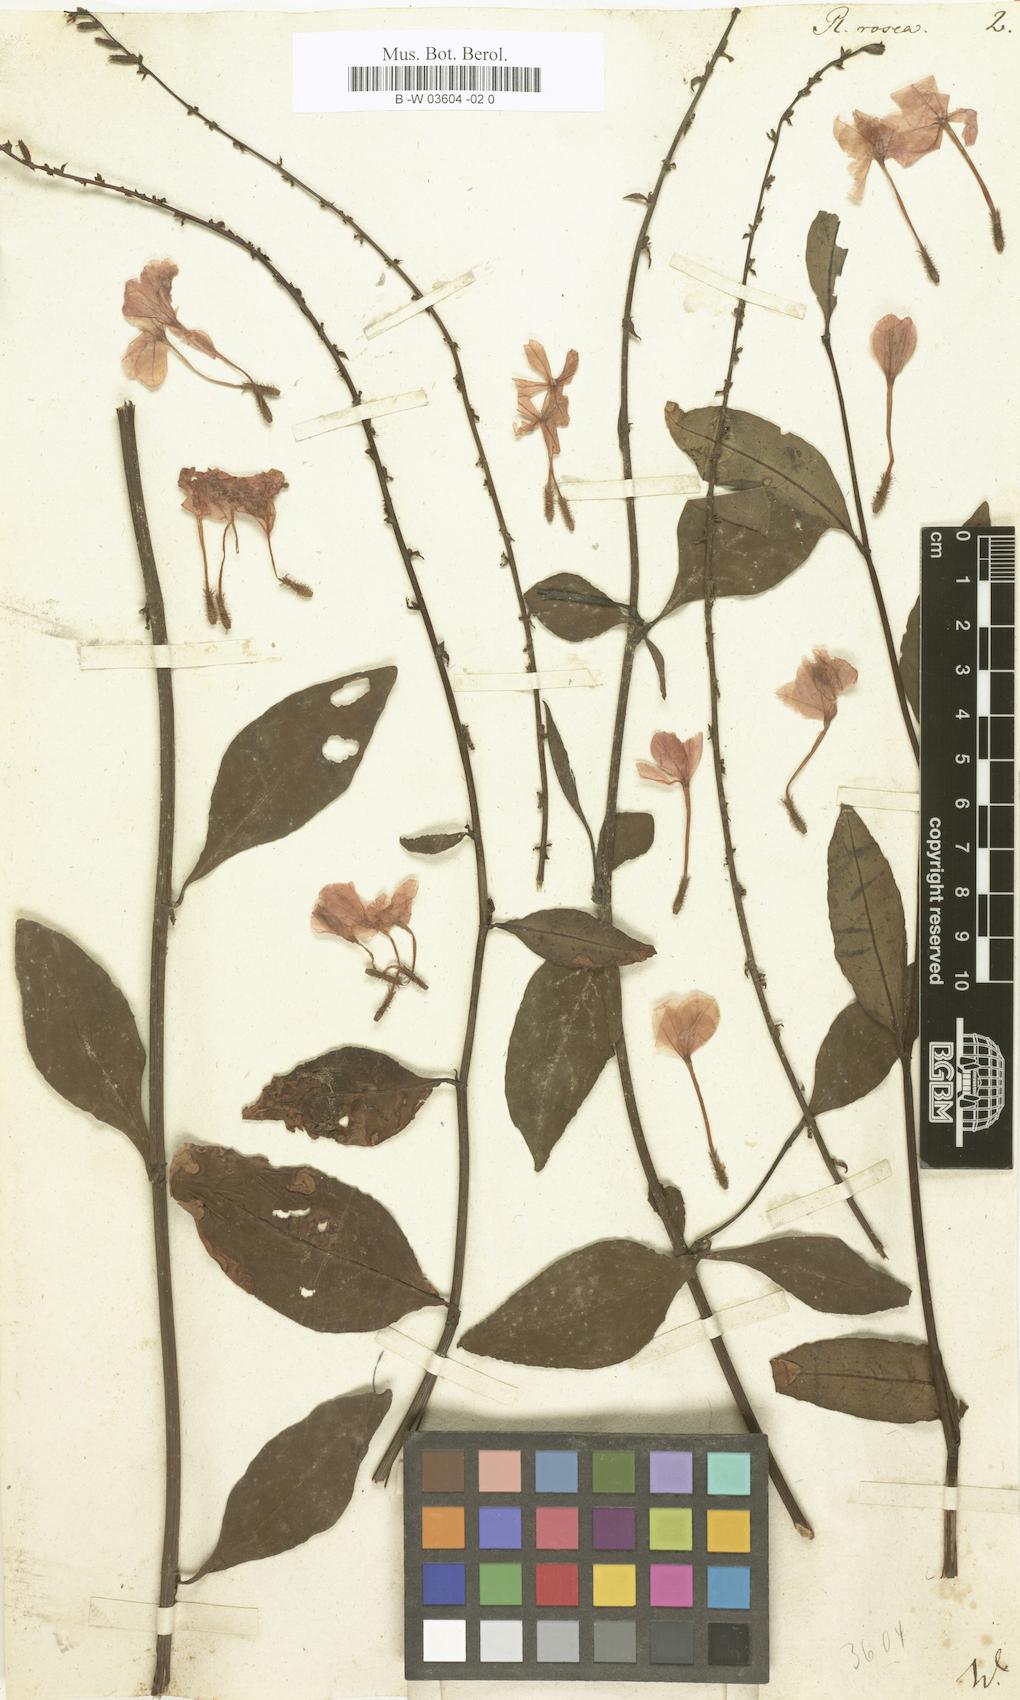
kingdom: Plantae
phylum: Tracheophyta
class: Magnoliopsida
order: Caryophyllales
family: Plumbaginaceae
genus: Plumbago
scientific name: Plumbago indica
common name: Indian leadwort
